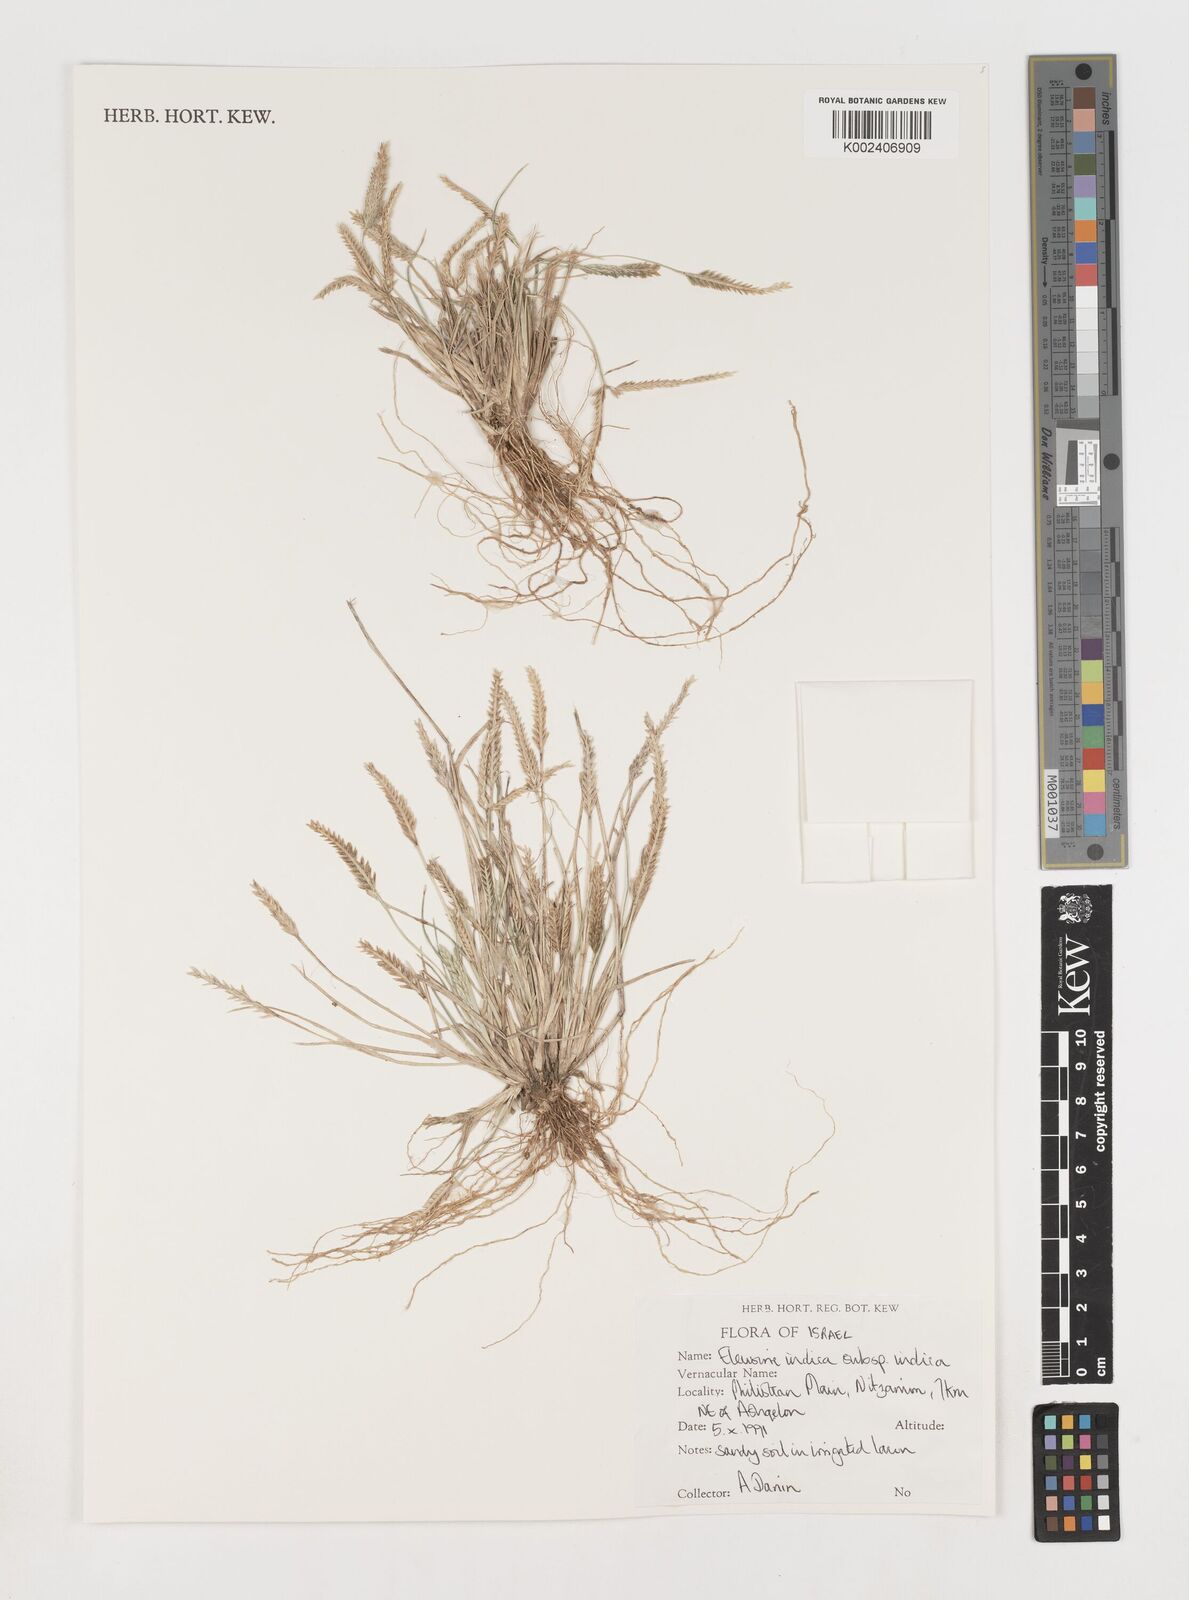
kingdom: Plantae
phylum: Tracheophyta
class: Liliopsida
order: Poales
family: Poaceae
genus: Eleusine
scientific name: Eleusine indica
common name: Yard-grass
